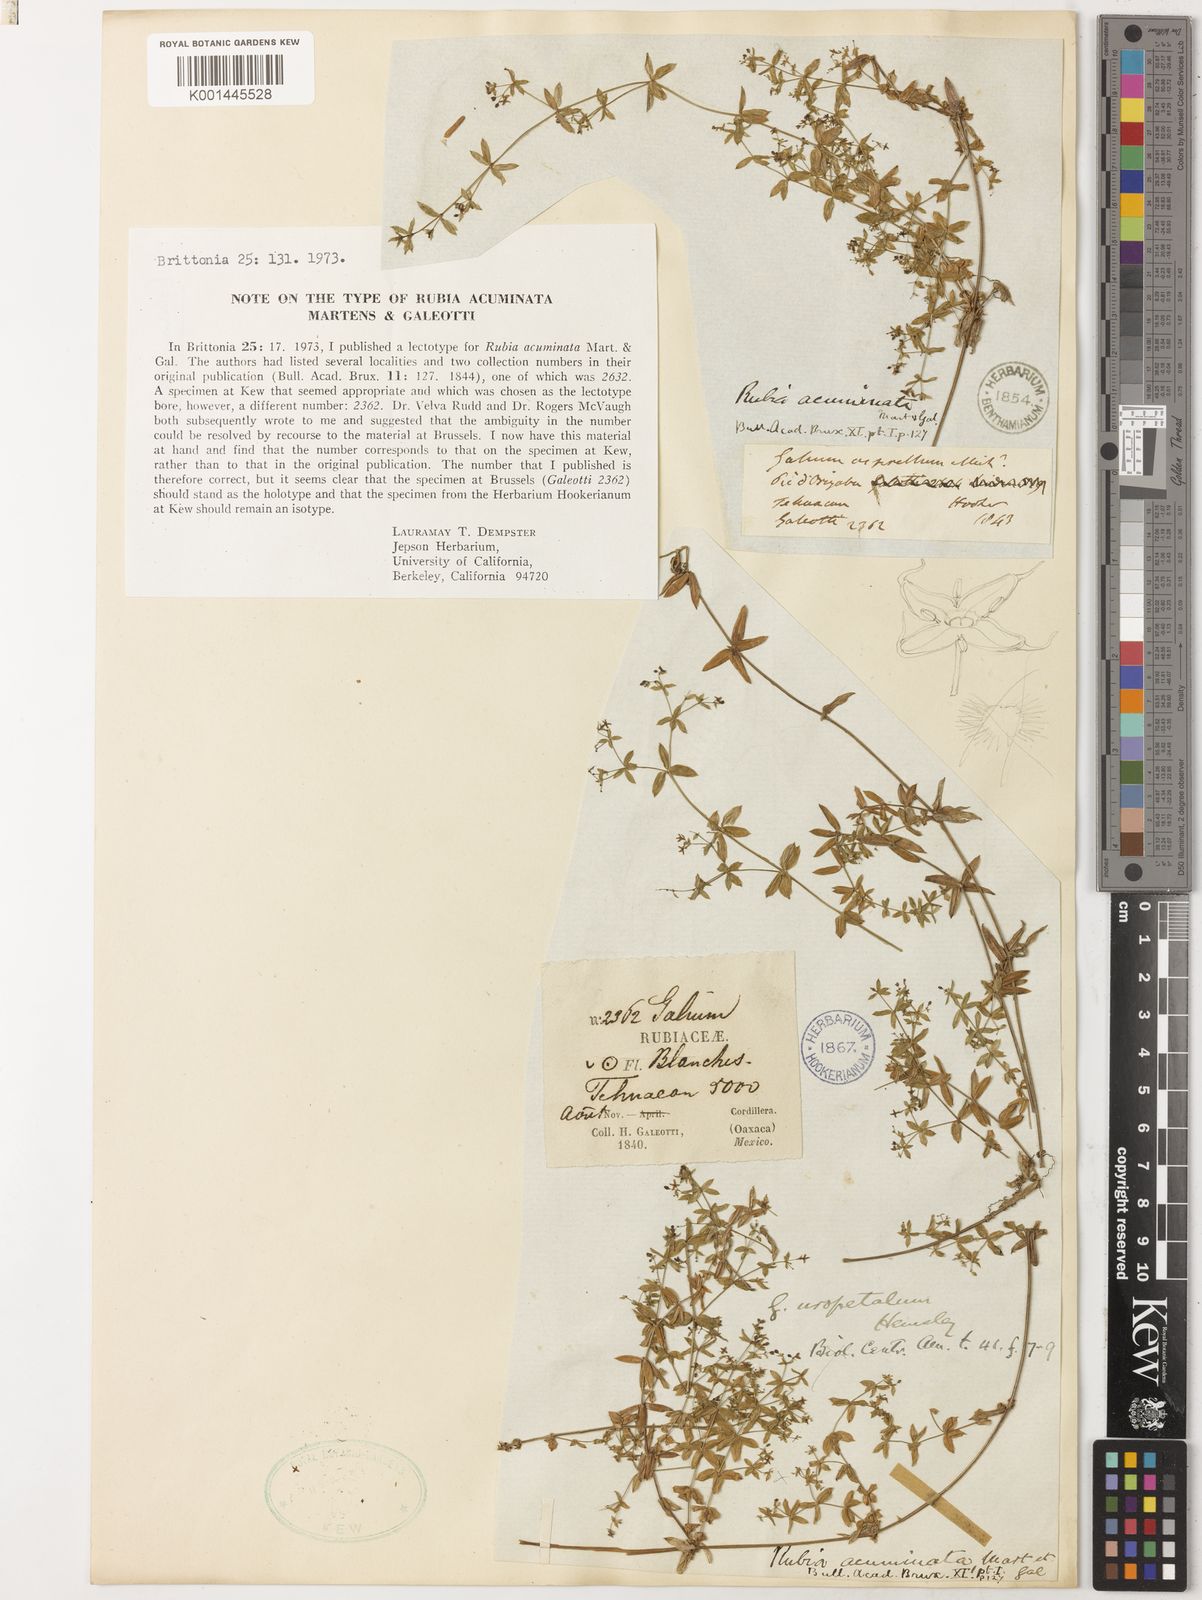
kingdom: Plantae
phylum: Tracheophyta
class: Magnoliopsida
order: Gentianales
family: Rubiaceae
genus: Galium
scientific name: Galium aschenbornii
